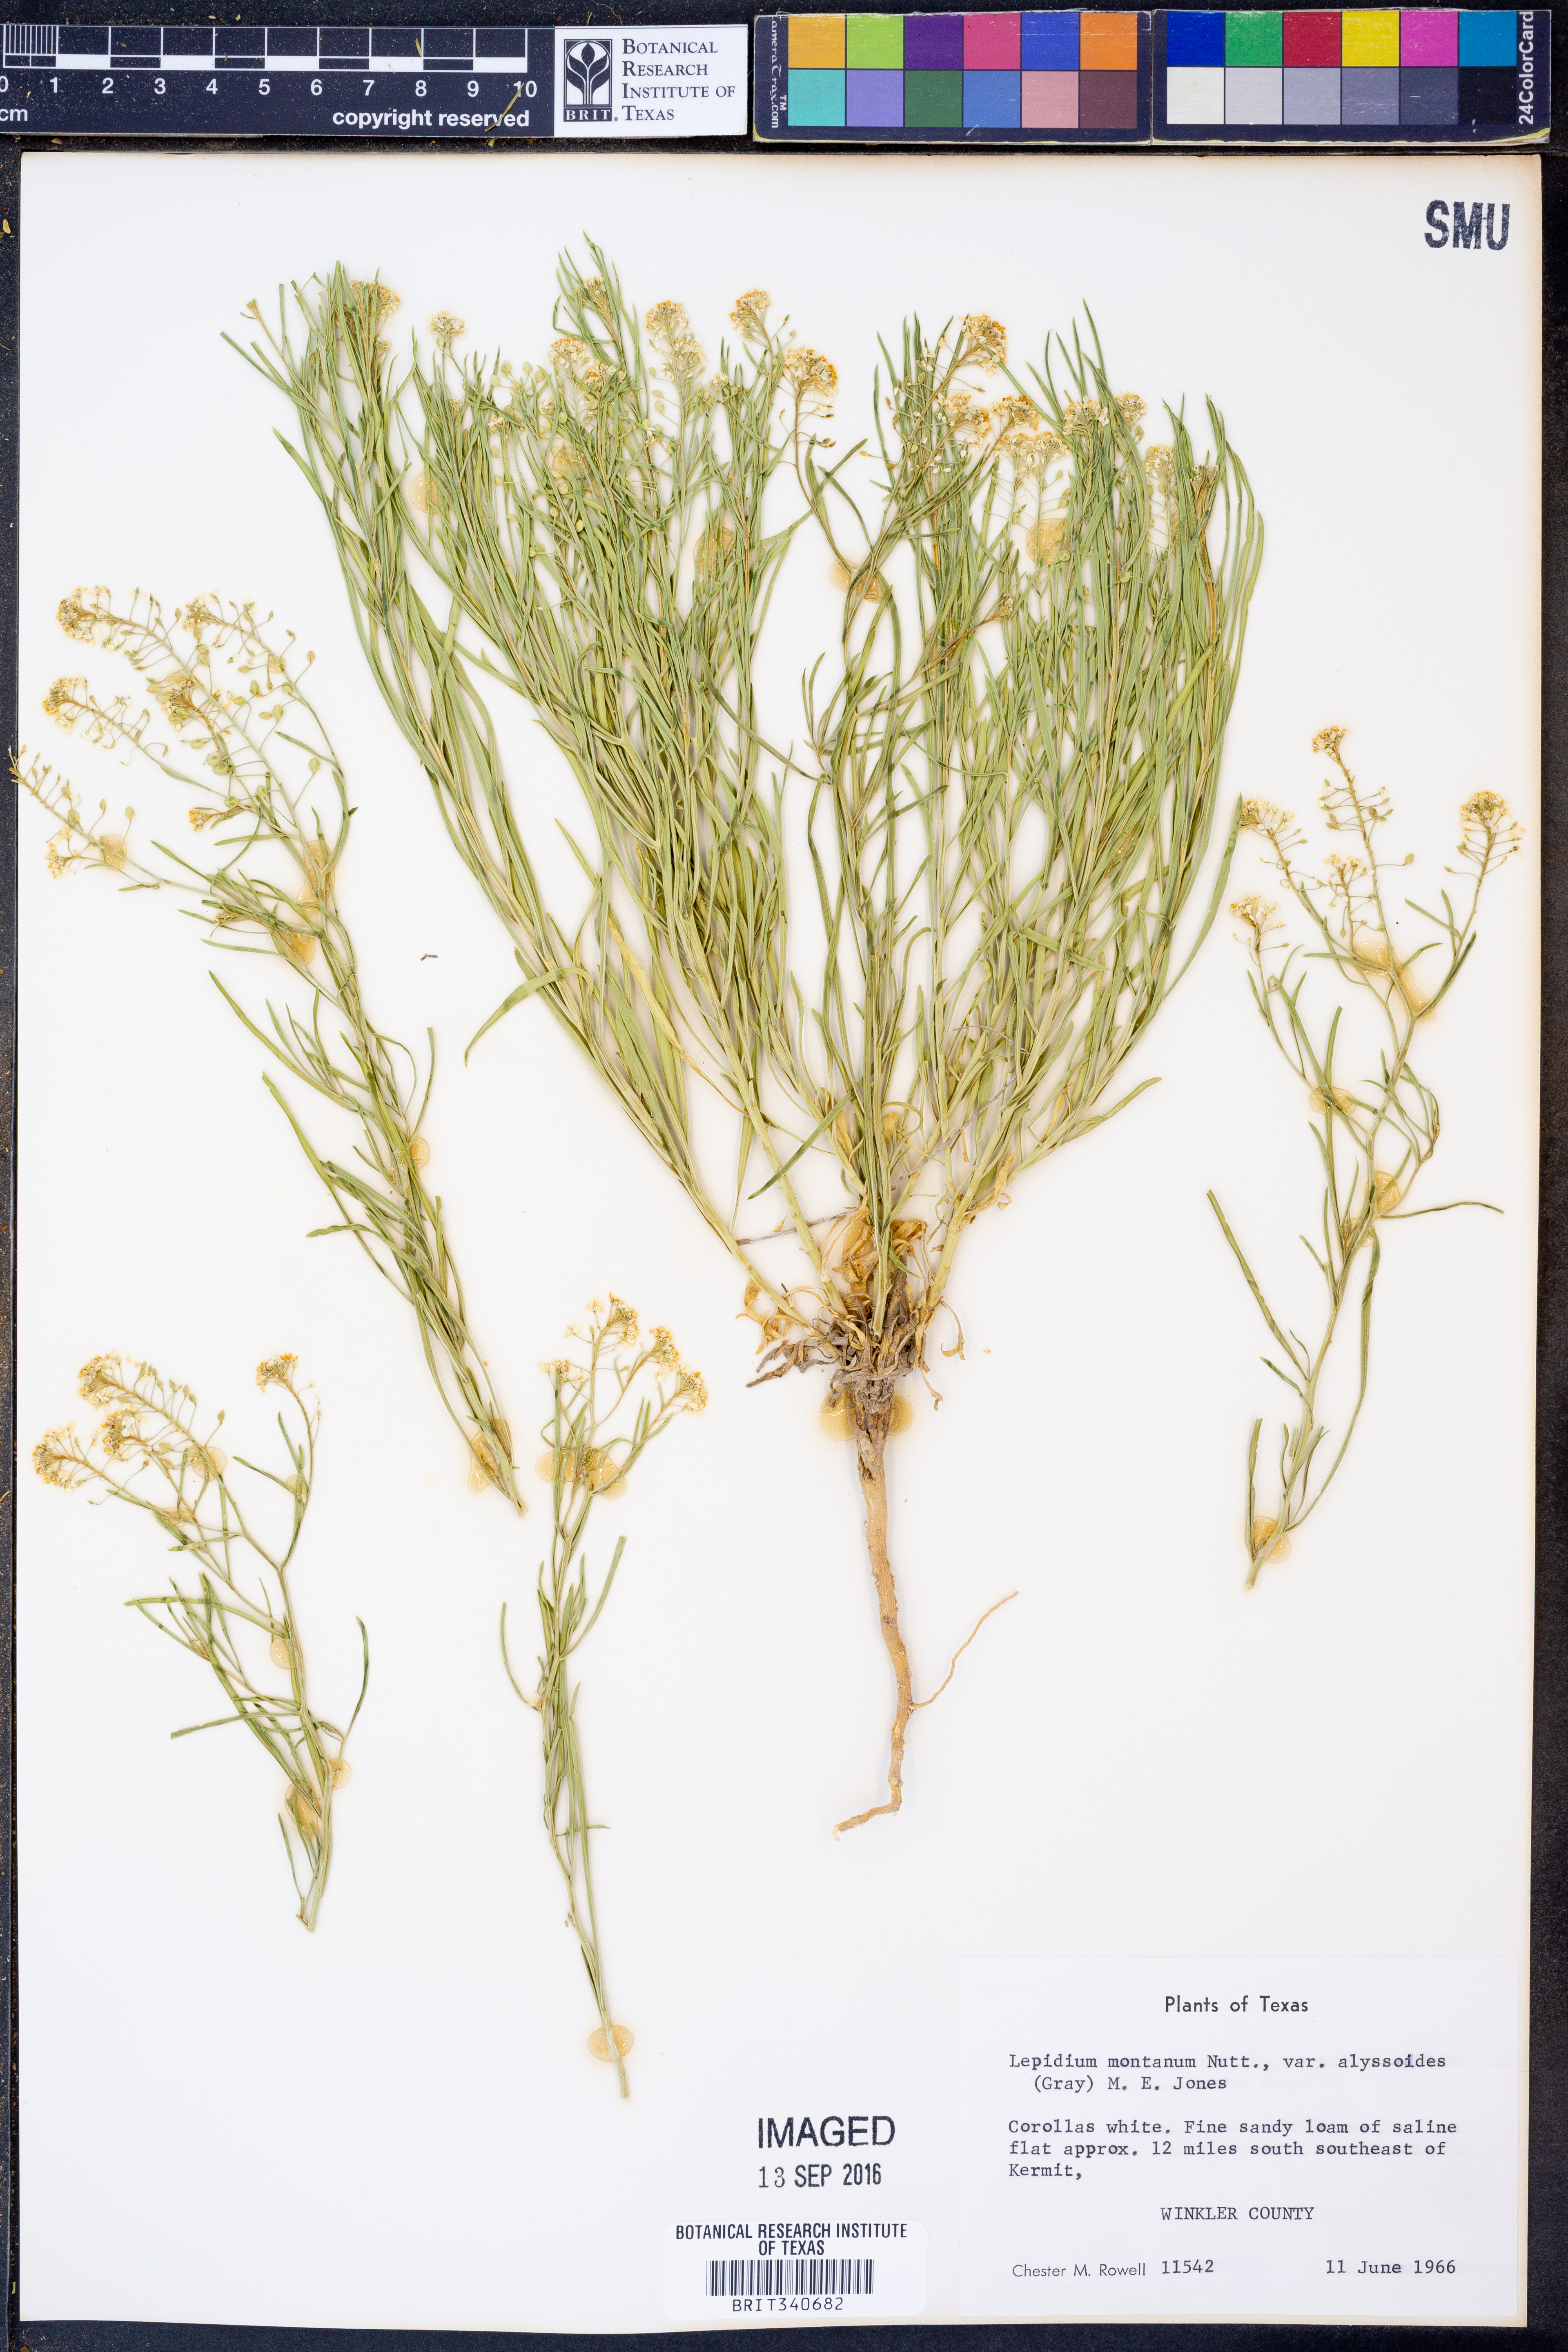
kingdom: Plantae
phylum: Tracheophyta
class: Magnoliopsida
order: Brassicales
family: Brassicaceae
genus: Lepidium
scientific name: Lepidium alyssoides
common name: Mesa pepperweed
